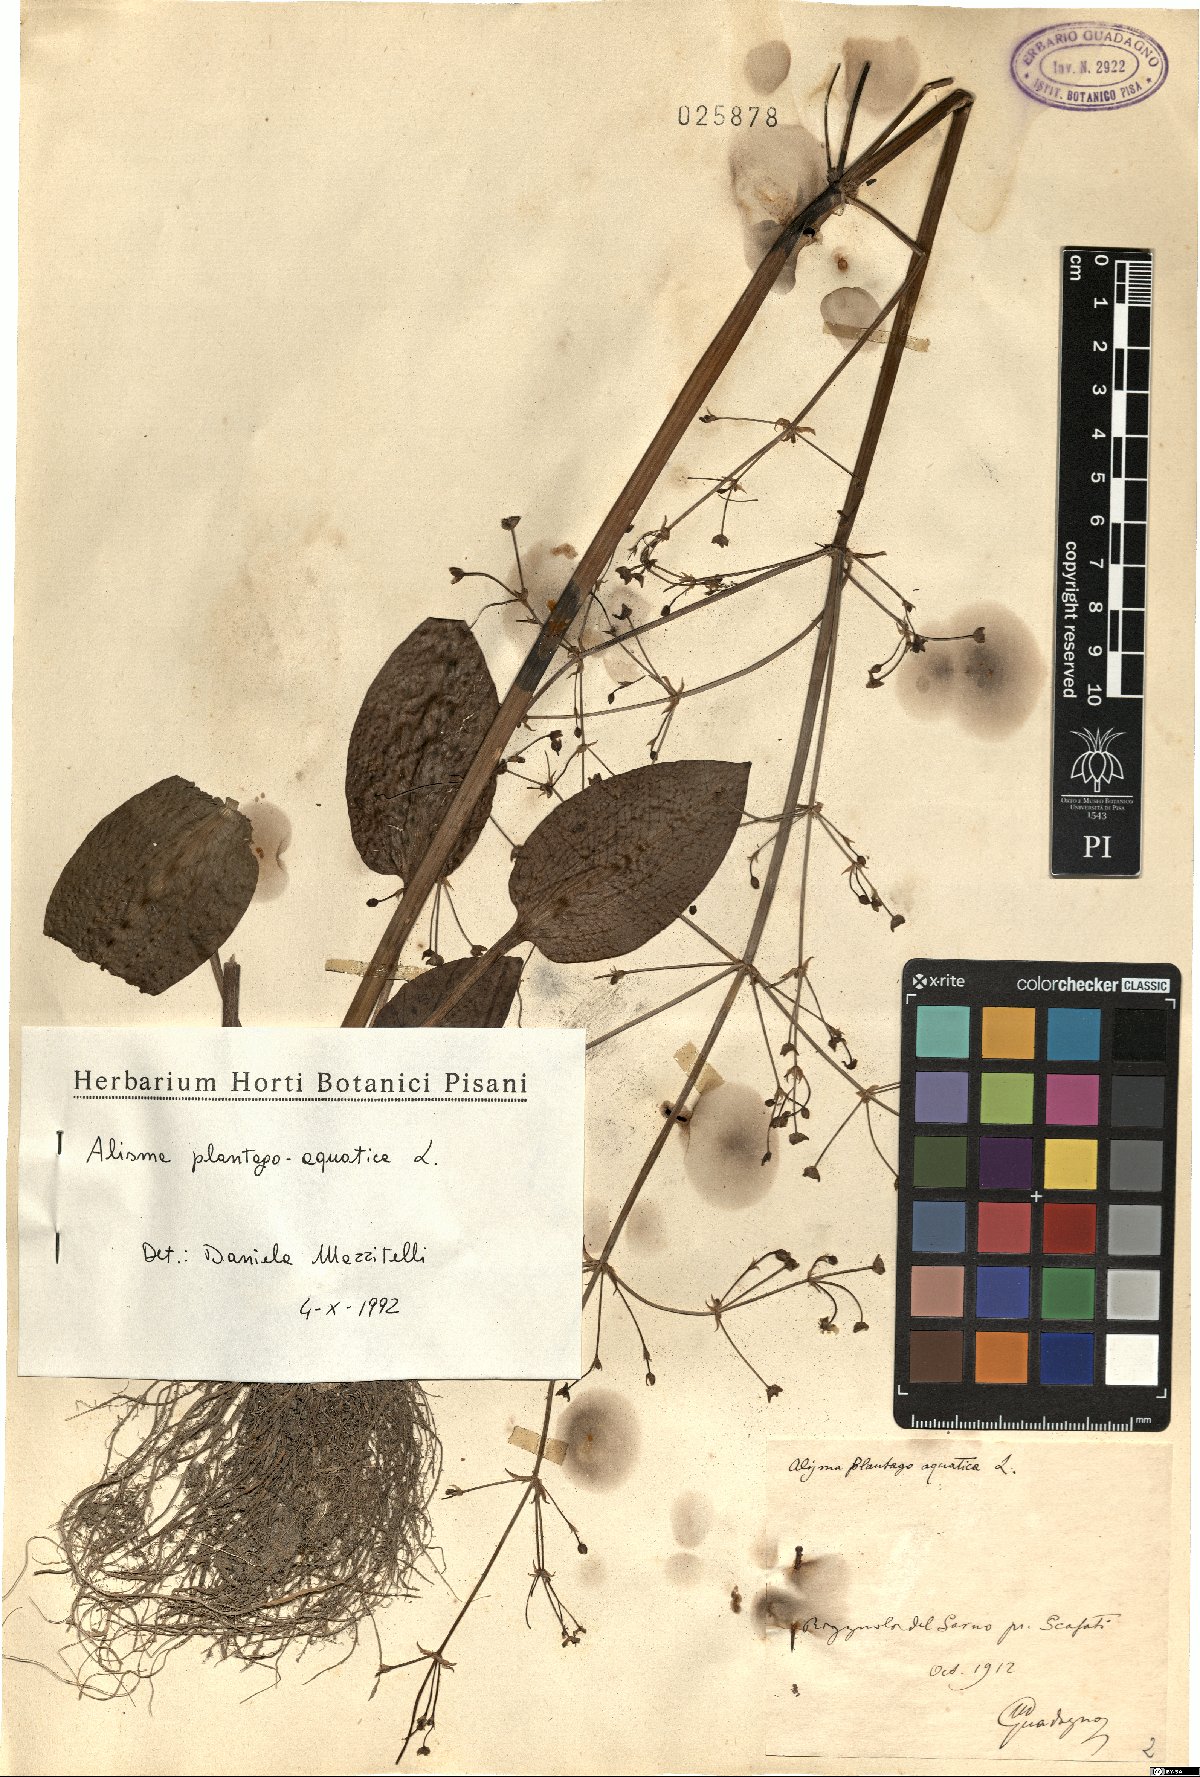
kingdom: Plantae
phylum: Tracheophyta
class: Liliopsida
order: Alismatales
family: Alismataceae
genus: Alisma
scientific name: Alisma plantago-aquatica
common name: Water-plantain
